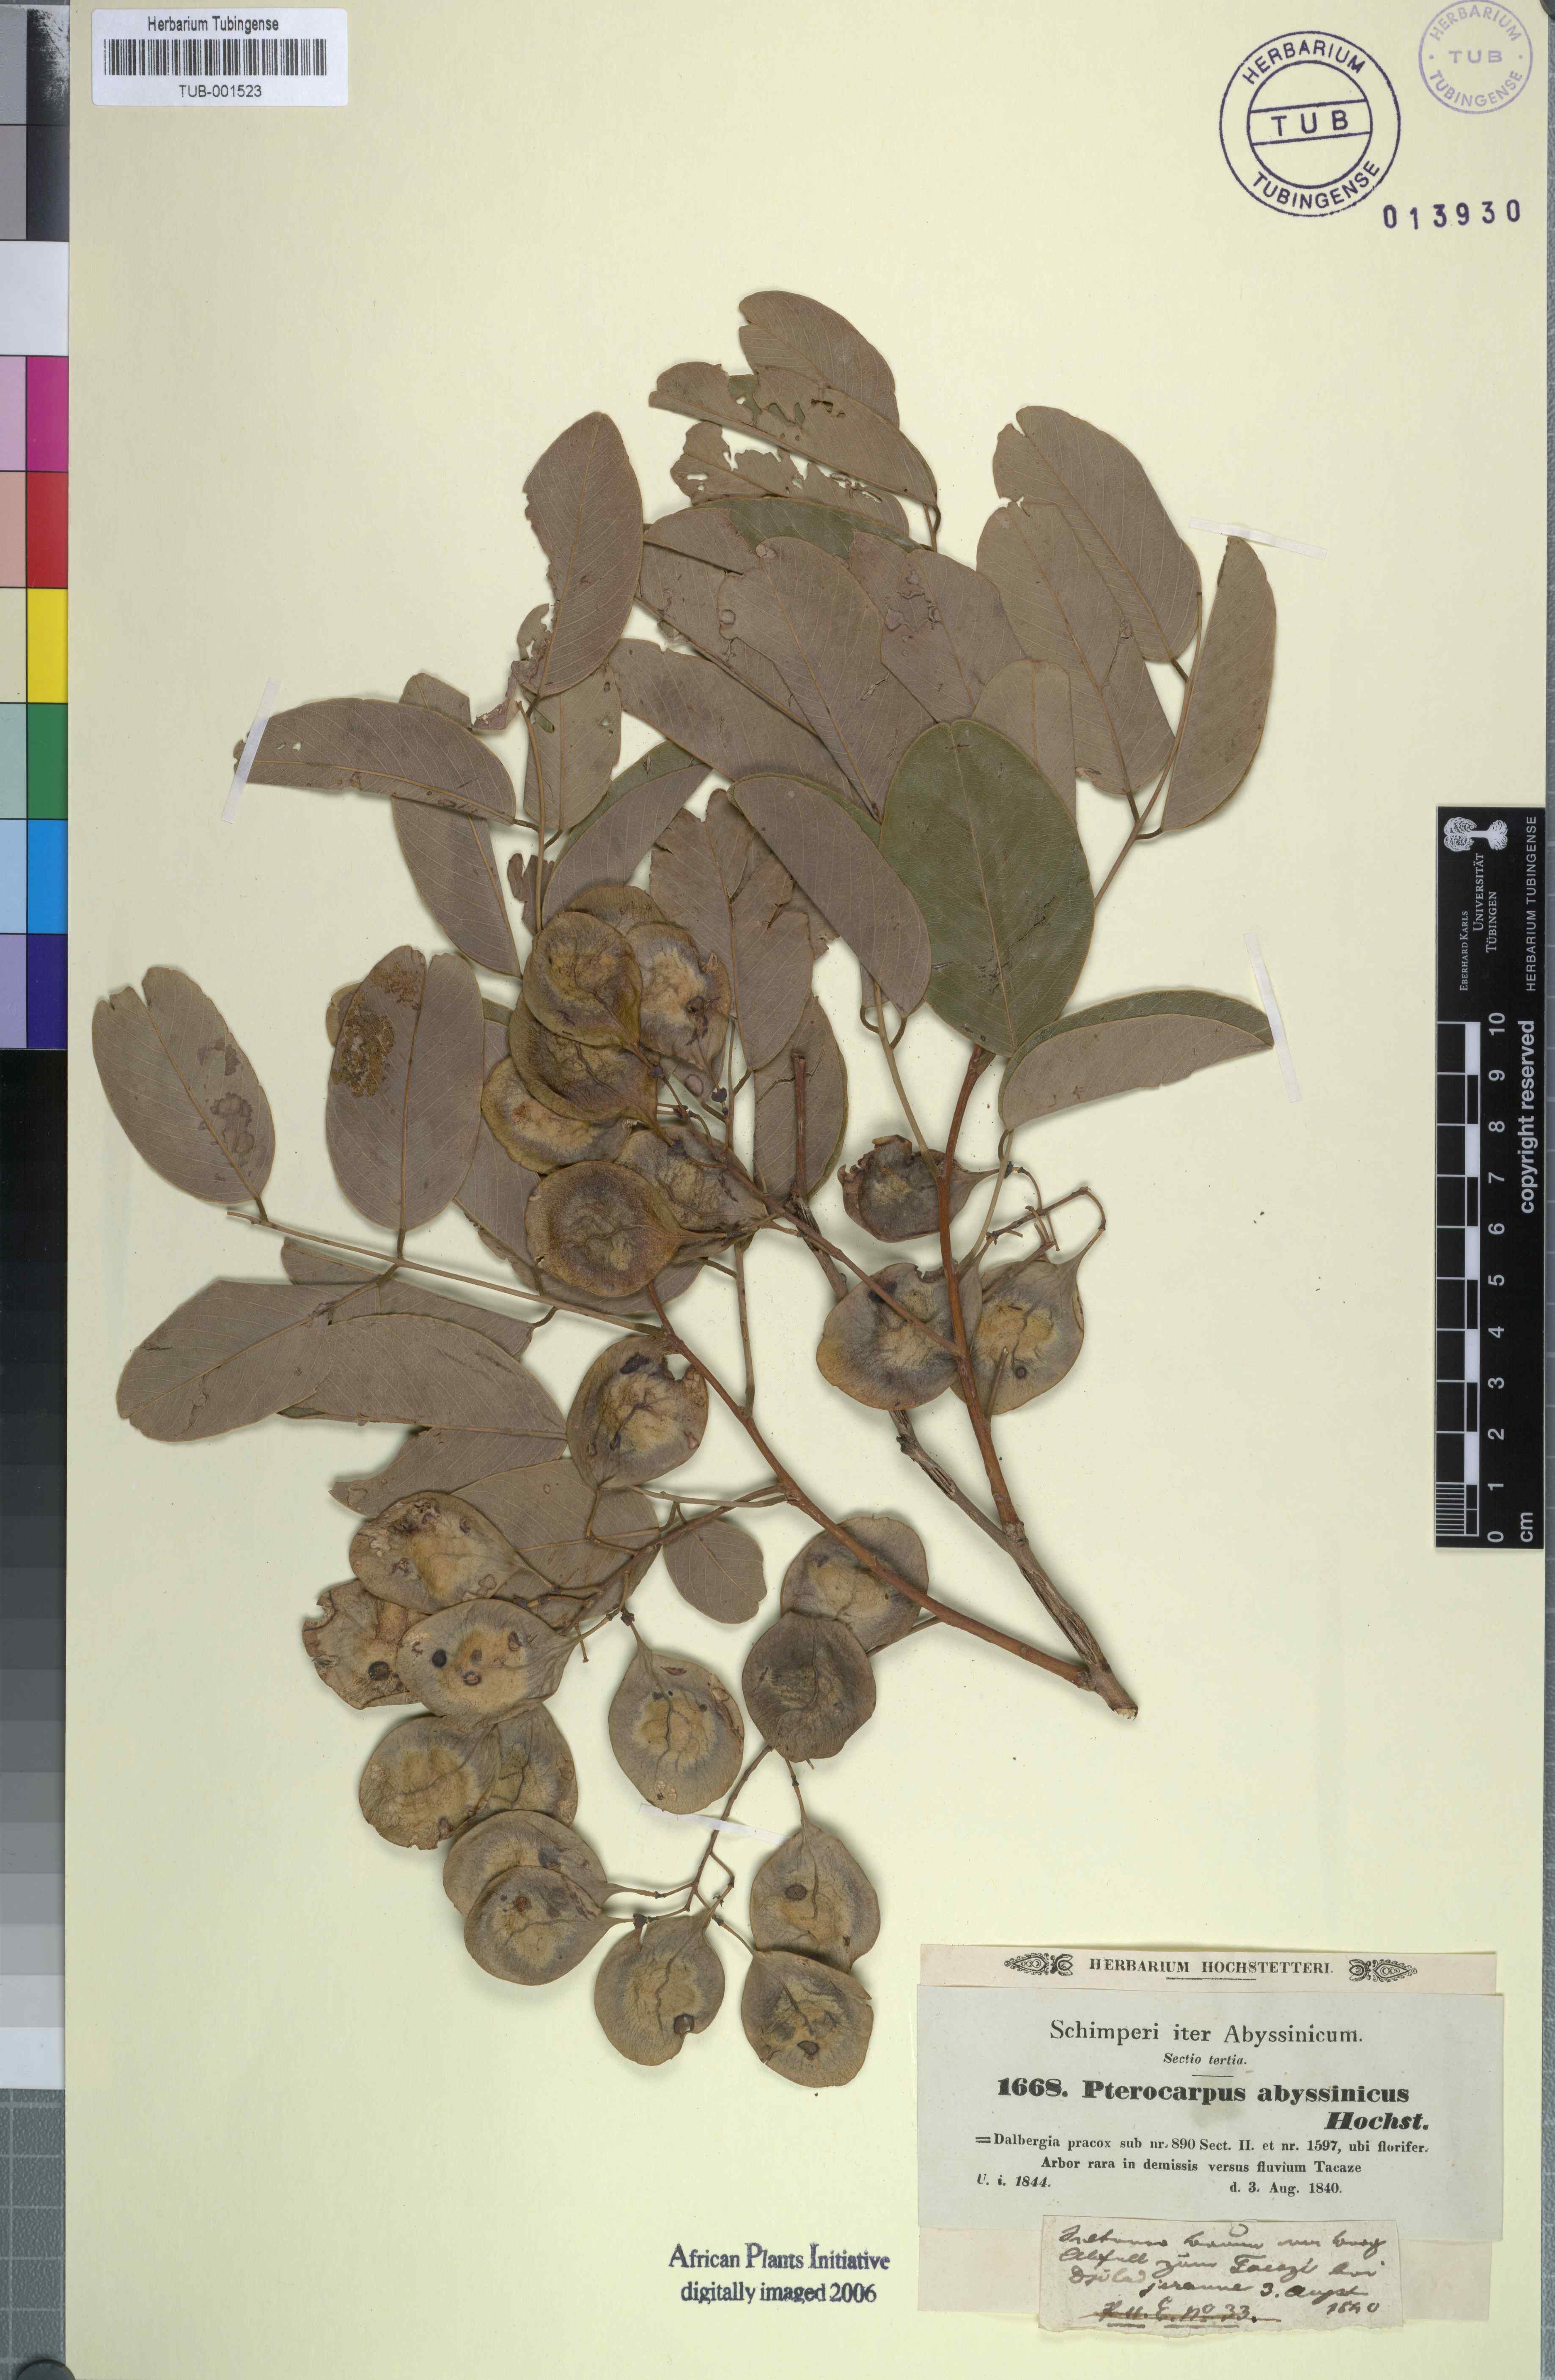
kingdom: Plantae
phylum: Tracheophyta
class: Magnoliopsida
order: Fabales
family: Fabaceae
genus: Pterocarpus
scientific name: Pterocarpus lucens
